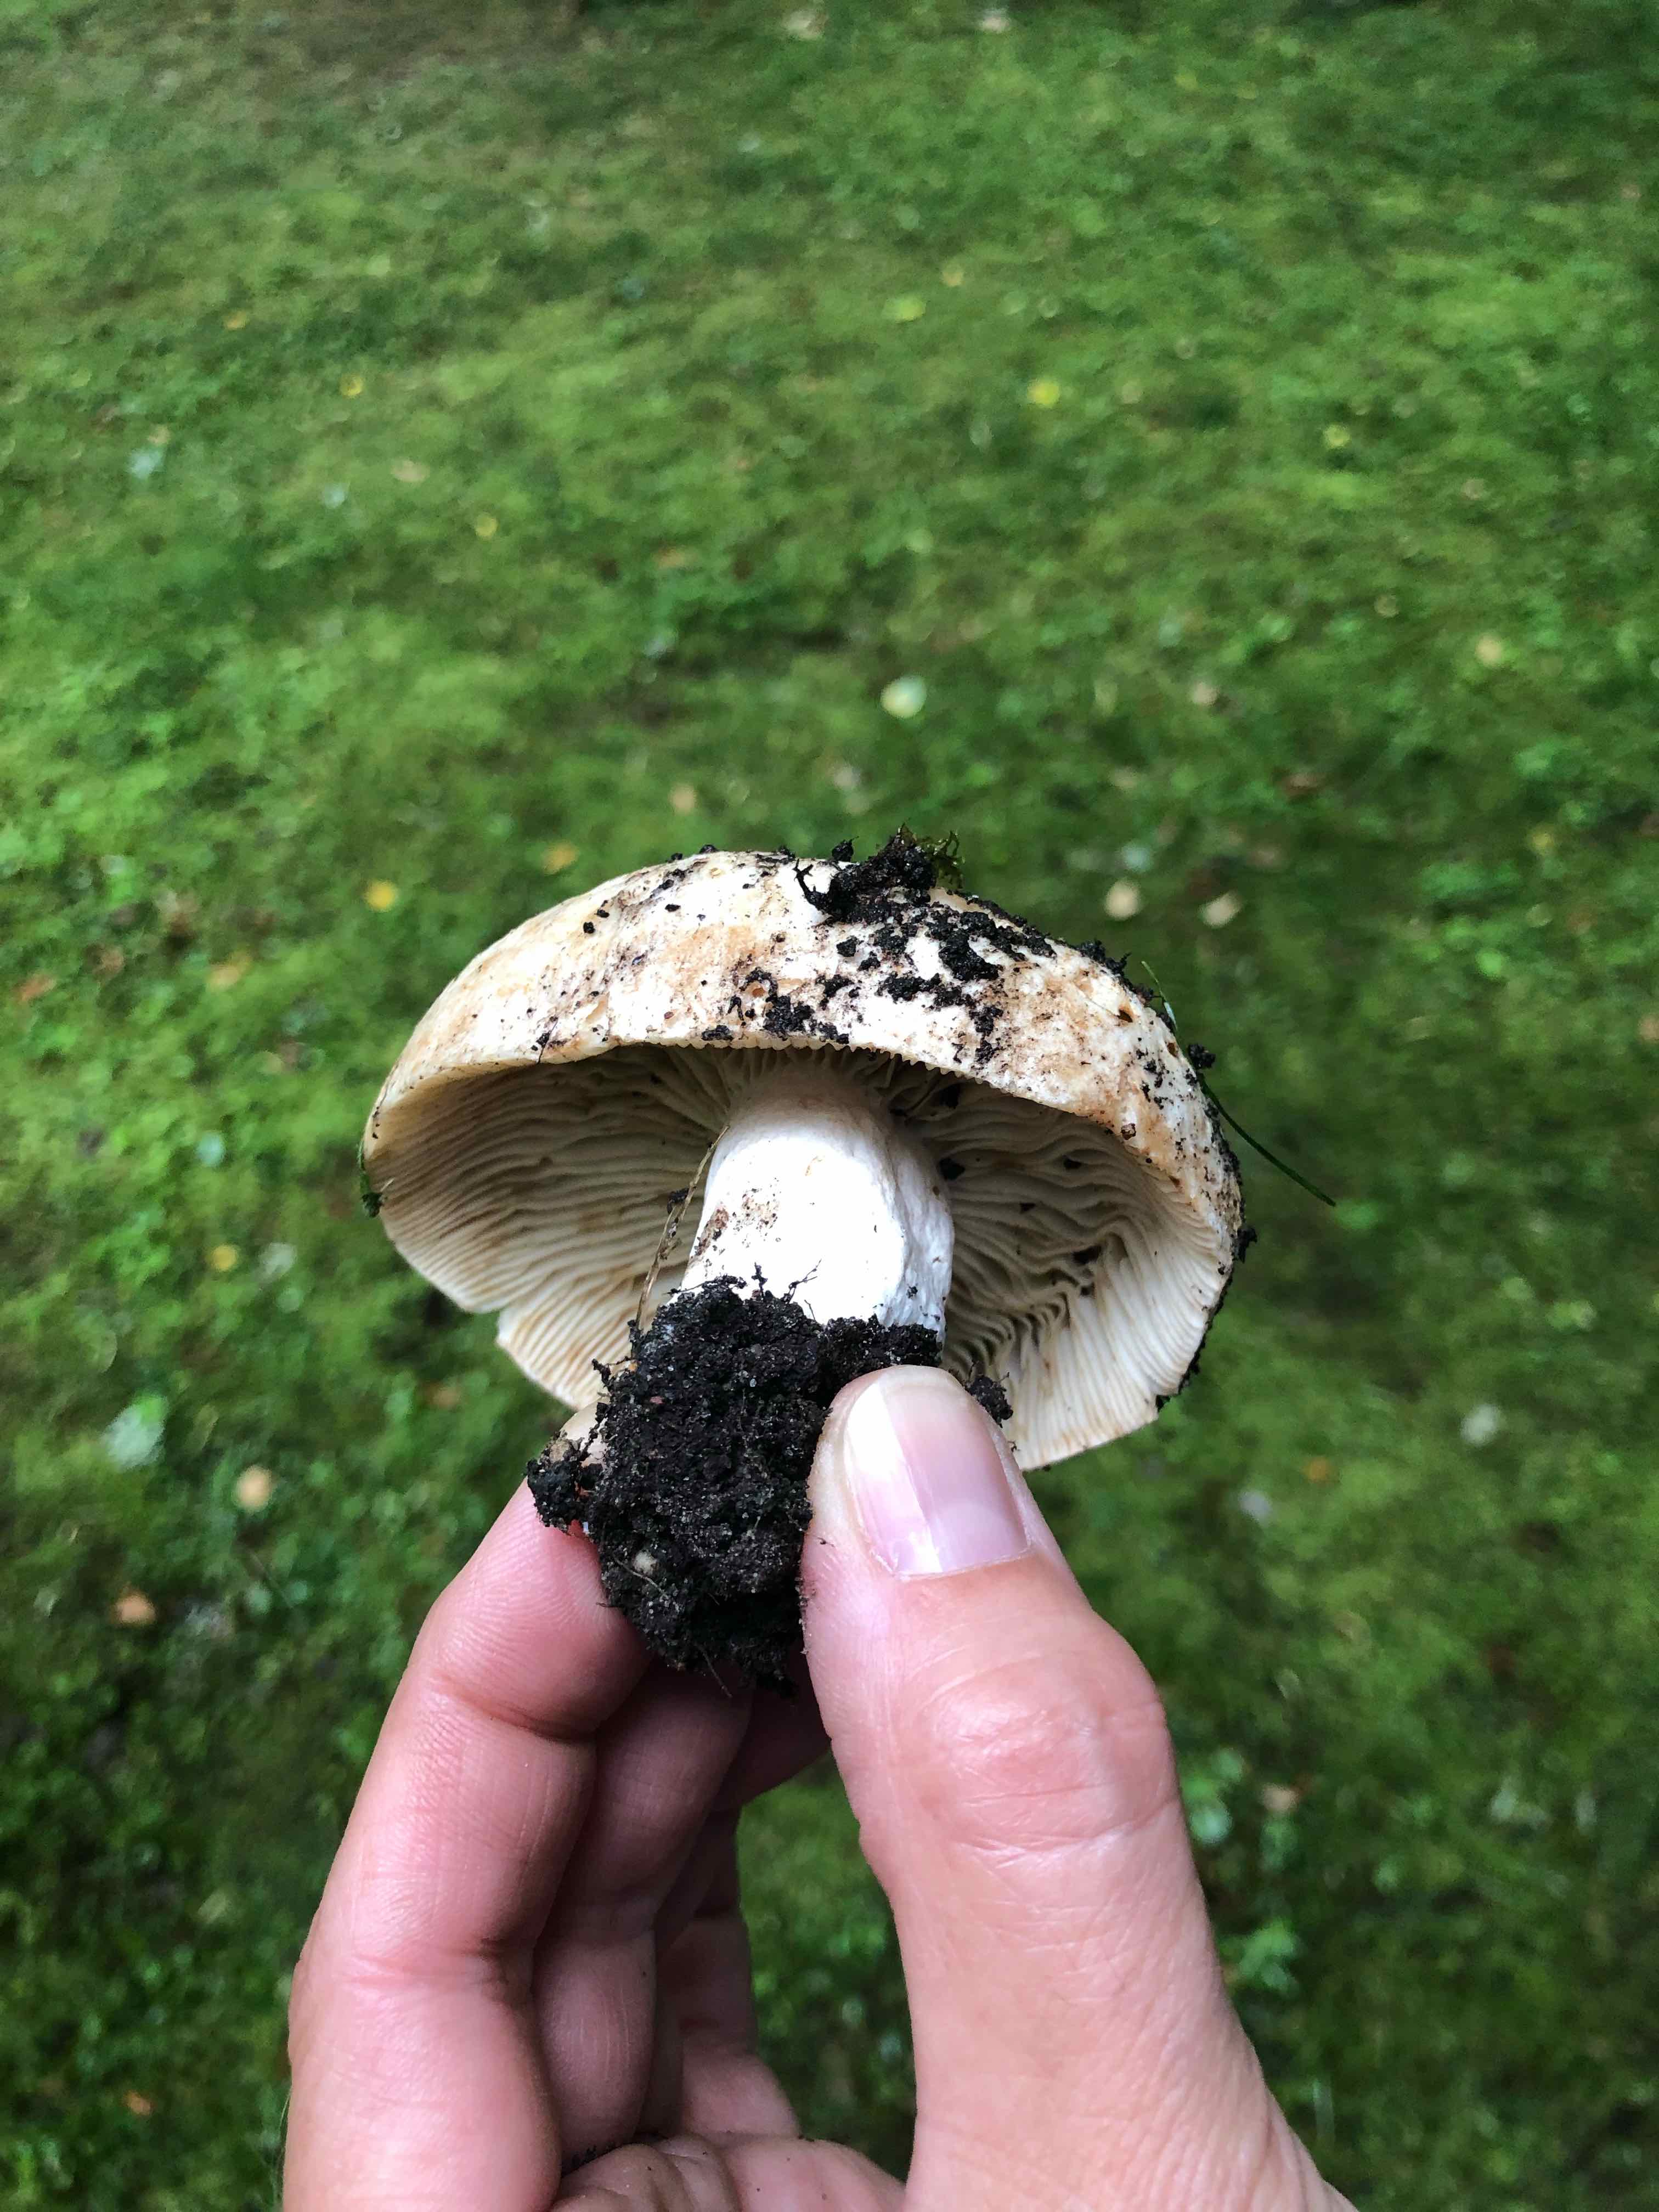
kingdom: Fungi
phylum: Basidiomycota
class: Agaricomycetes
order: Russulales
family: Russulaceae
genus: Russula
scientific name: Russula
